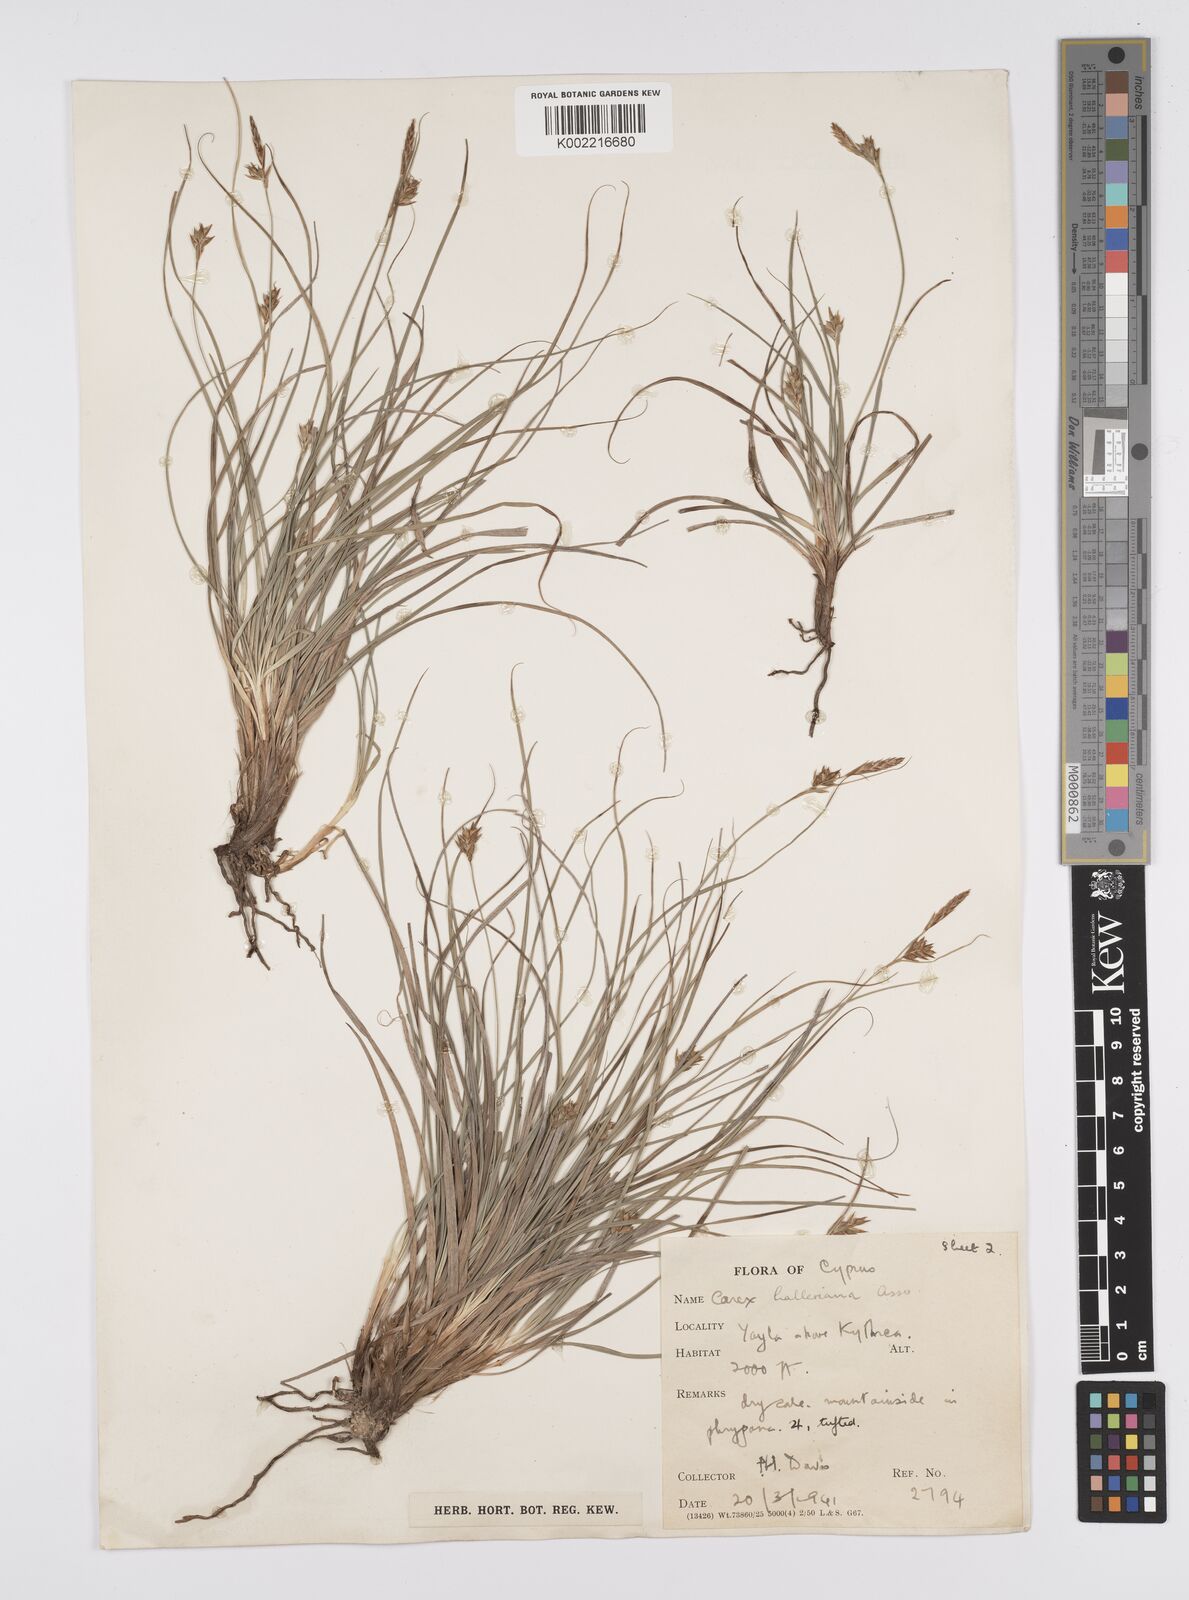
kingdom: Plantae
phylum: Tracheophyta
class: Liliopsida
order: Poales
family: Cyperaceae
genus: Carex
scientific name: Carex halleriana
